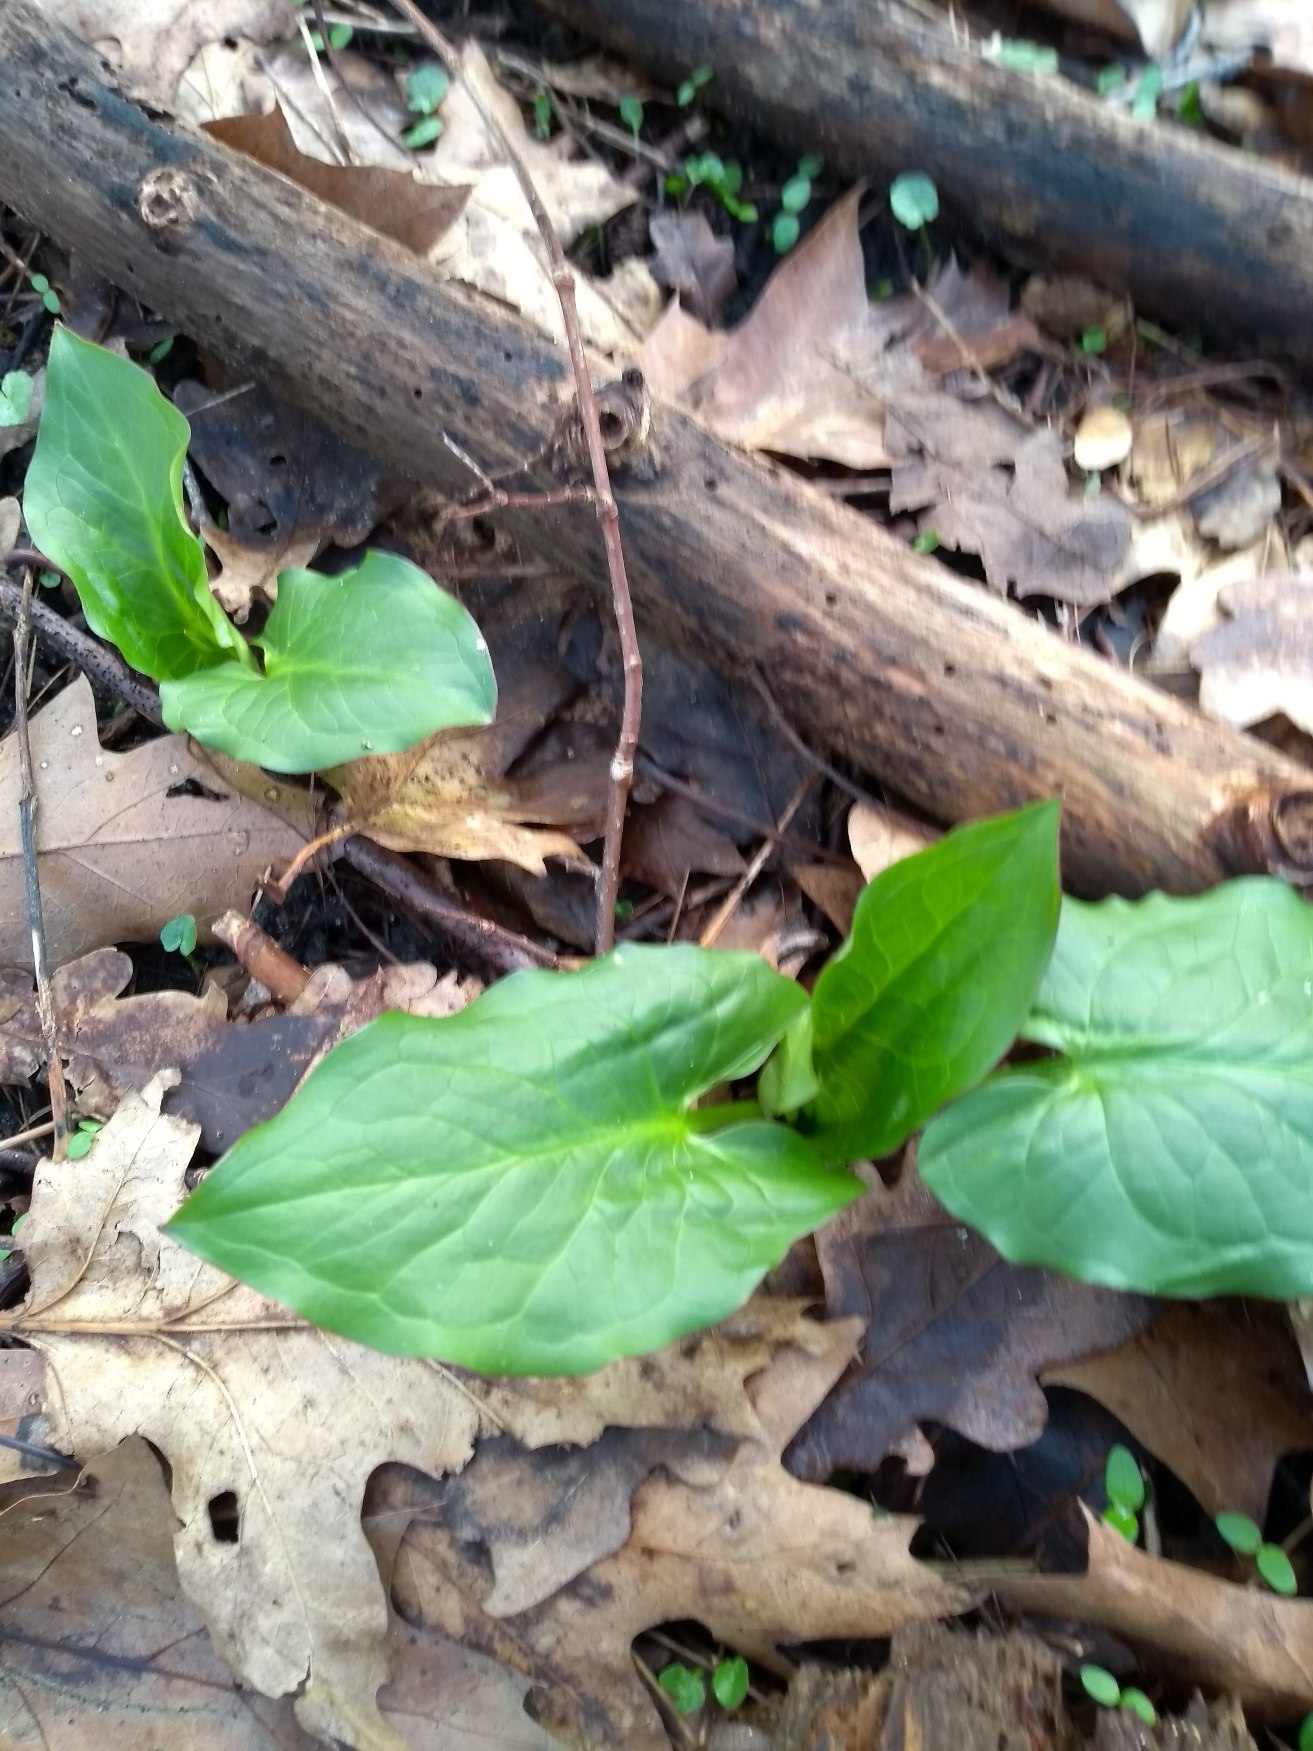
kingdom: Plantae
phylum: Tracheophyta
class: Liliopsida
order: Alismatales
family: Araceae
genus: Arum
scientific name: Arum maculatum
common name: Plettet arum
